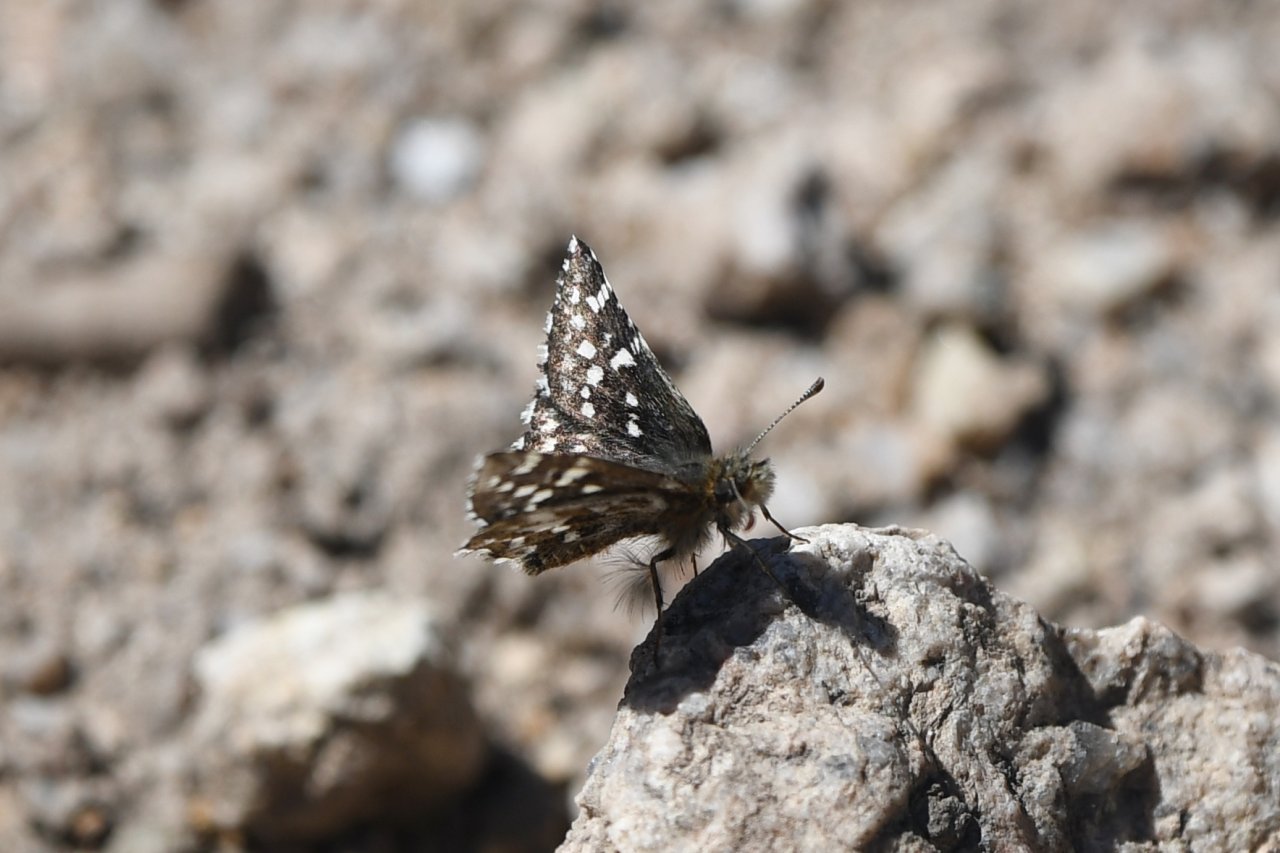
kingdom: Animalia
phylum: Arthropoda
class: Insecta
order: Lepidoptera
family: Hesperiidae
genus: Pyrgus
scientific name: Pyrgus ruralis
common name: Two-banded Checkered-Skipper
